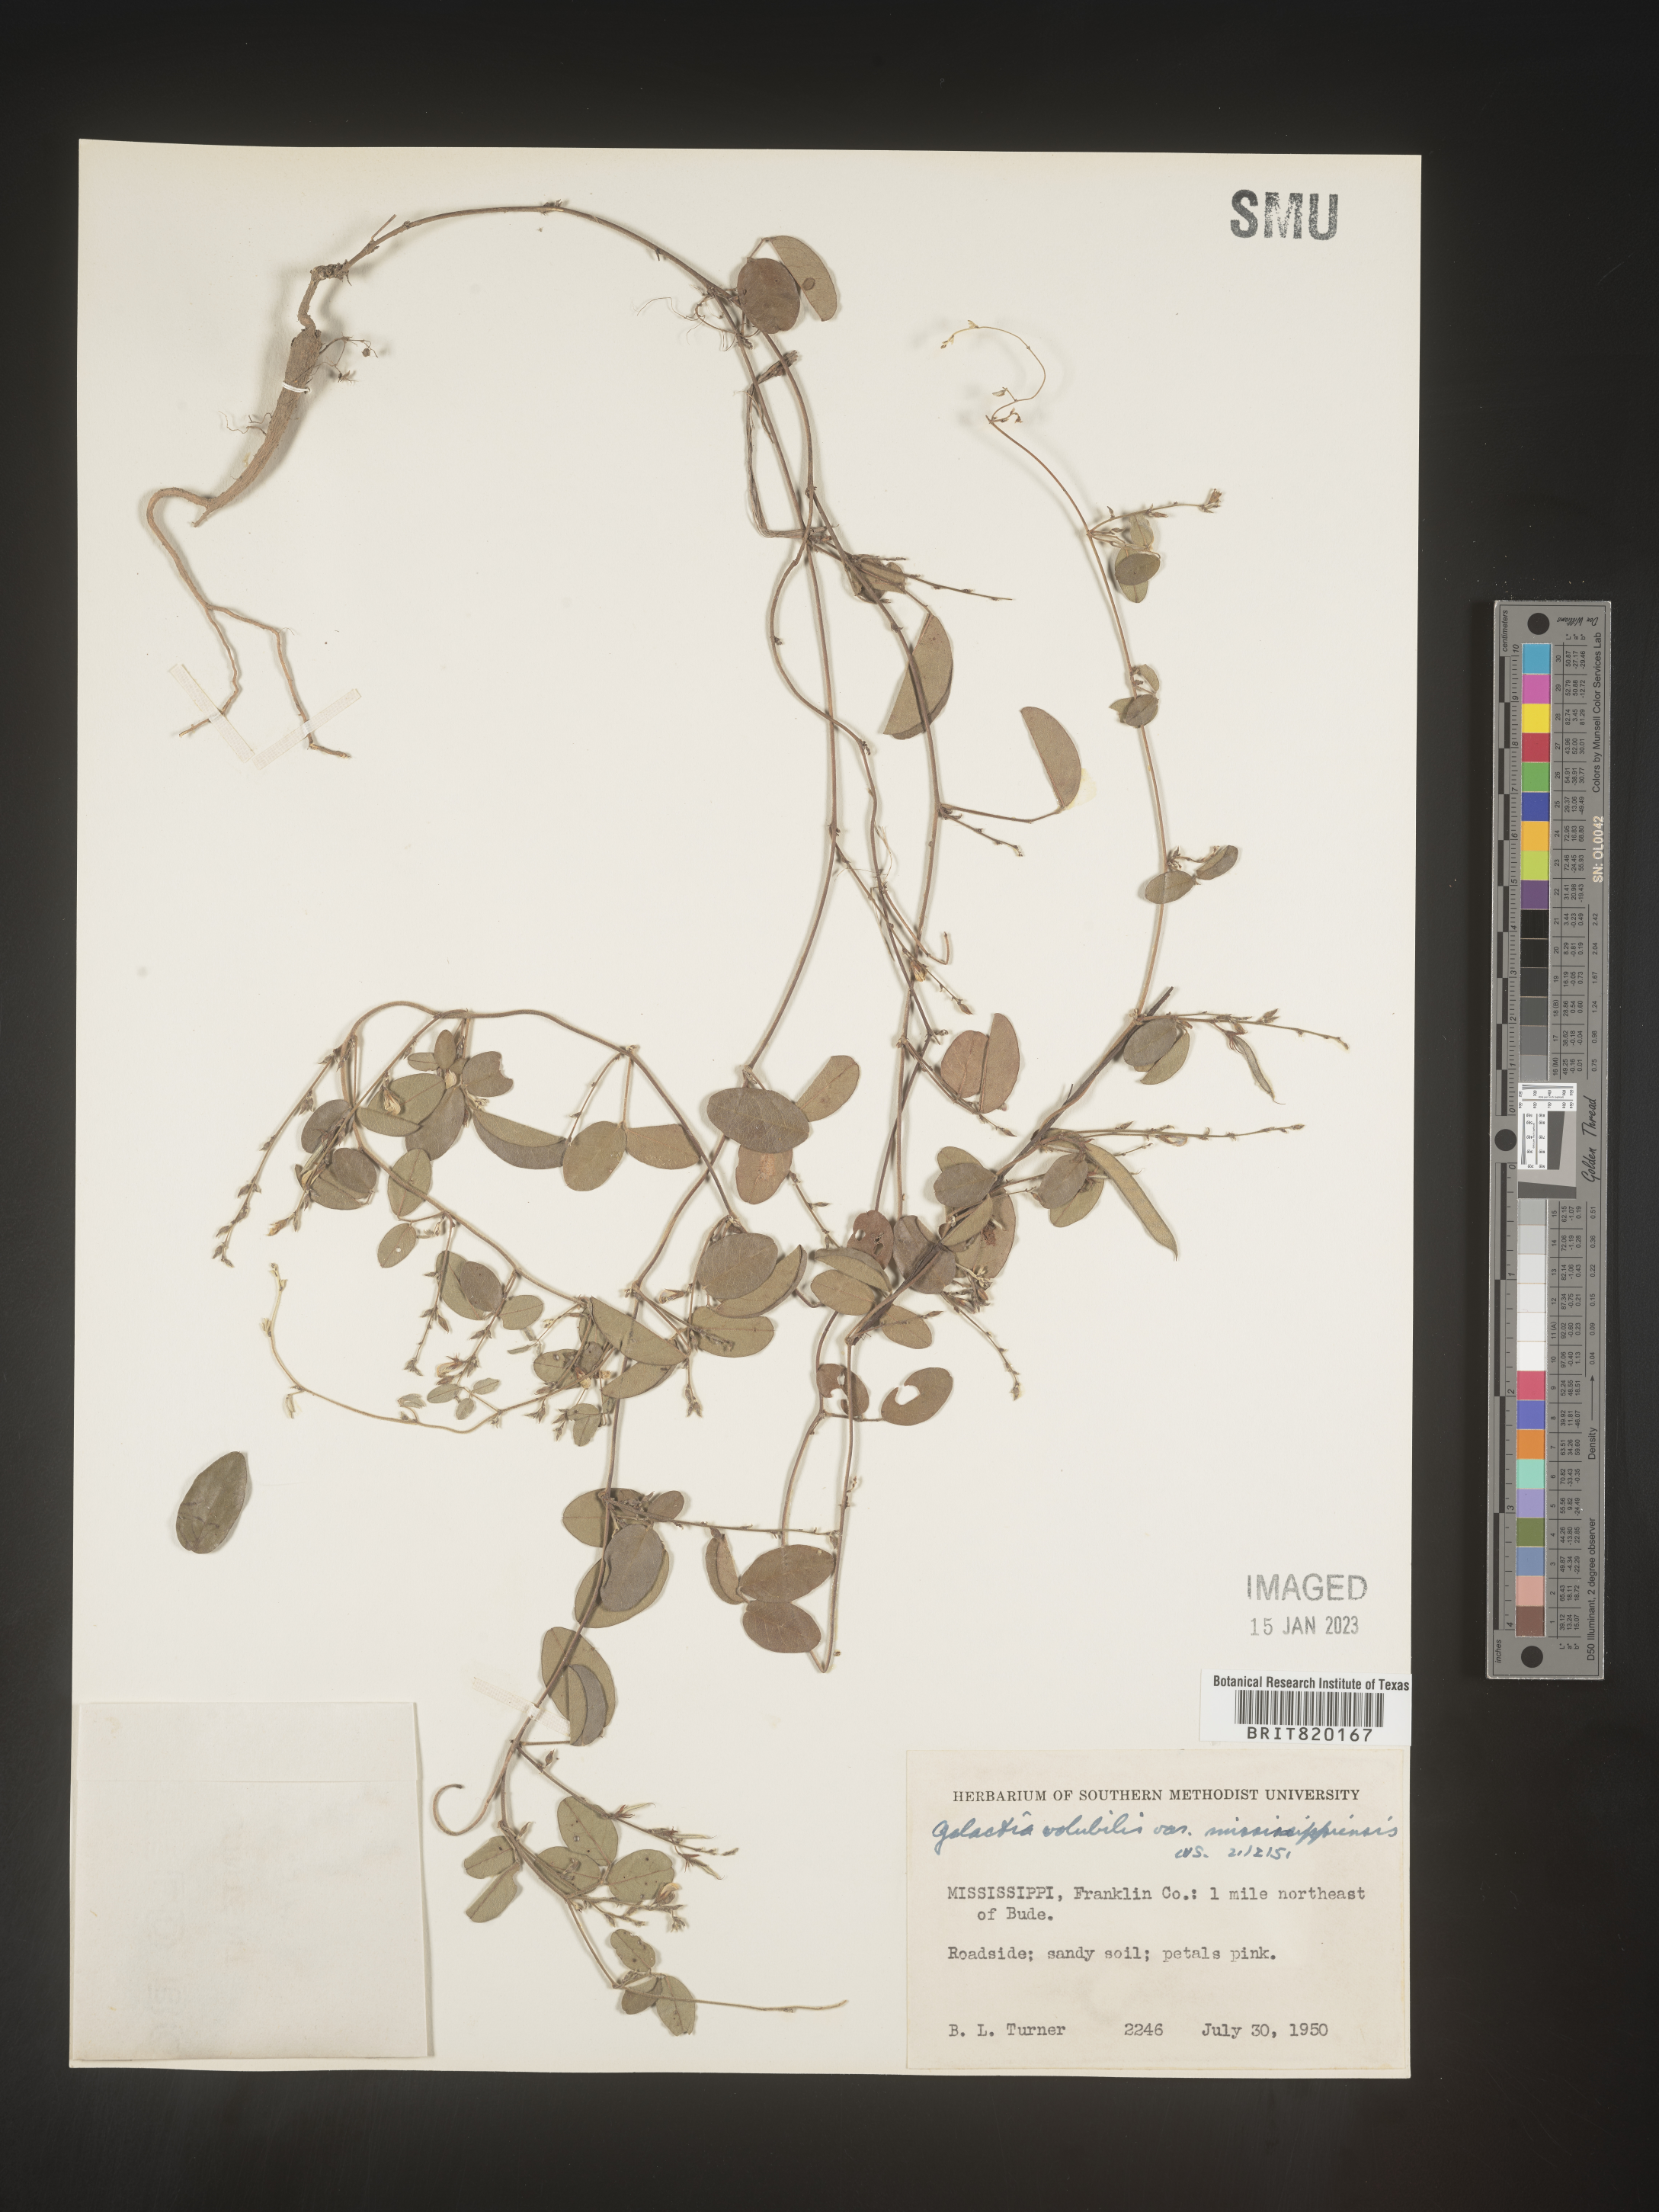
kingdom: Plantae
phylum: Tracheophyta
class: Magnoliopsida
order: Fabales
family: Fabaceae
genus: Galactia
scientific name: Galactia volubilis
